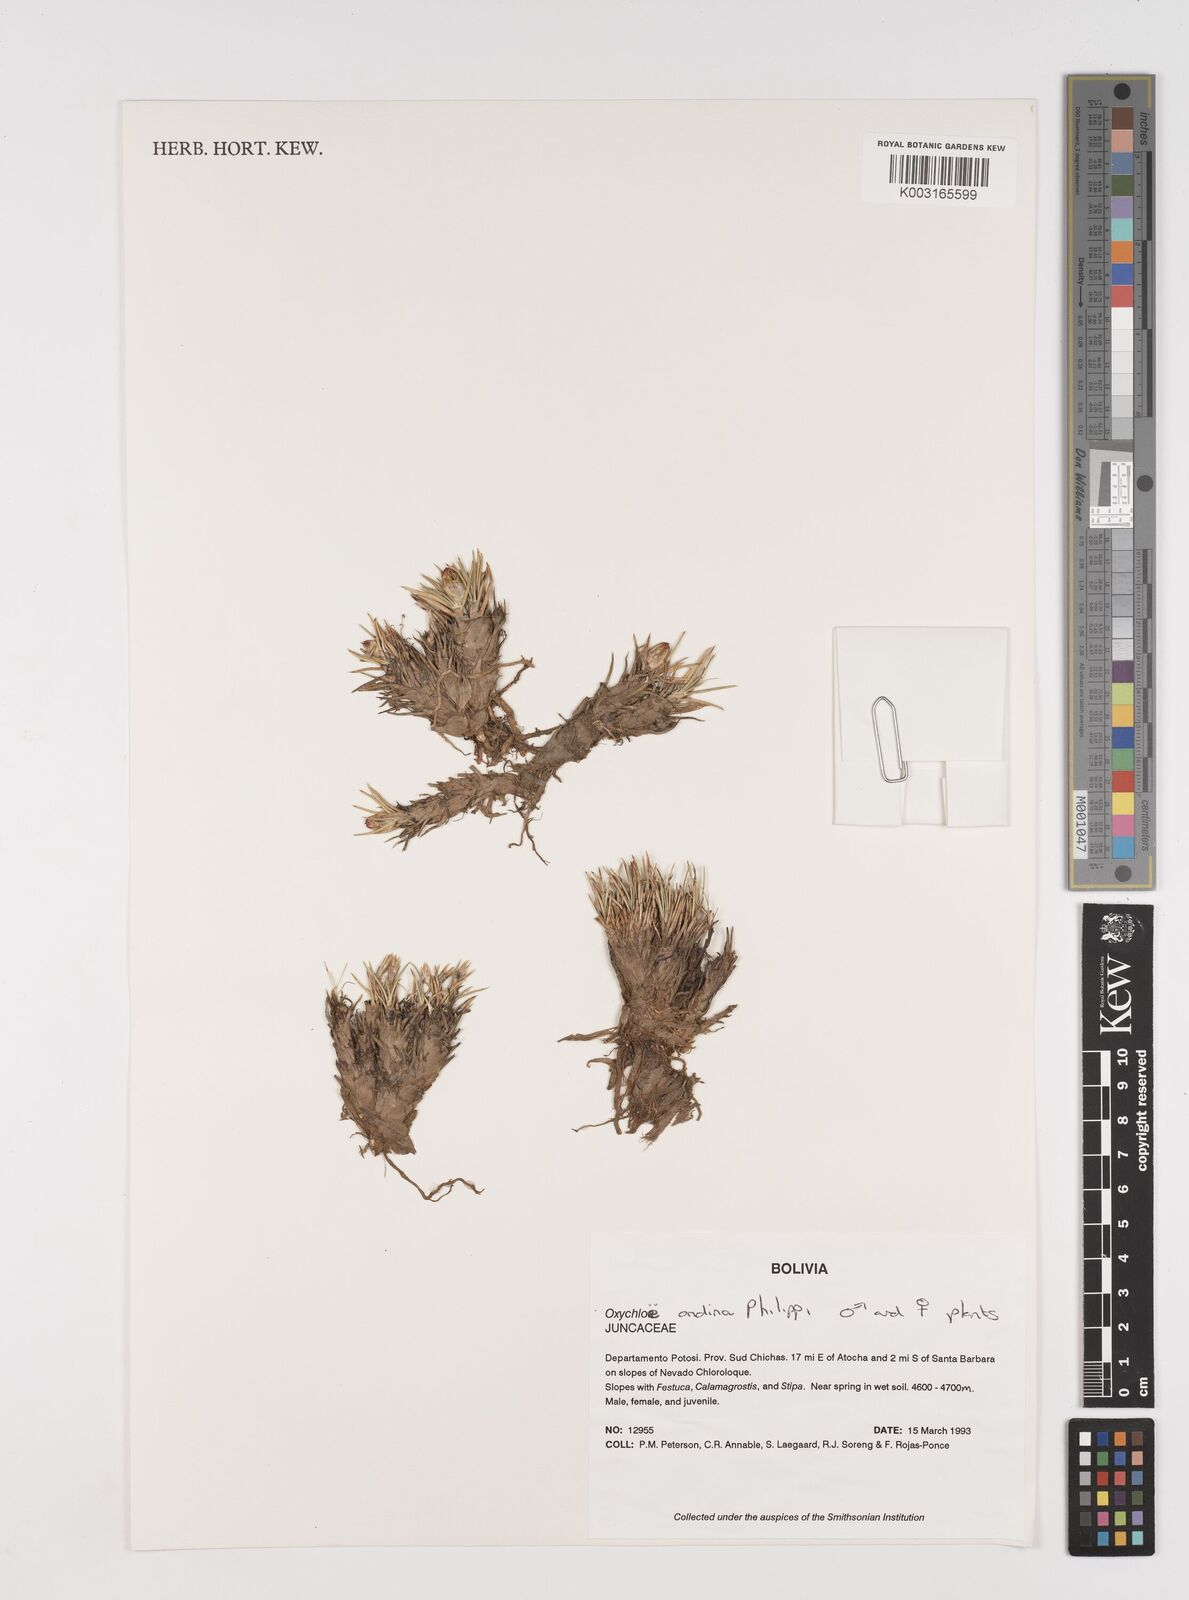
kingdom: Plantae
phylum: Tracheophyta
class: Liliopsida
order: Poales
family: Juncaceae
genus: Oxychloe
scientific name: Oxychloe andina
